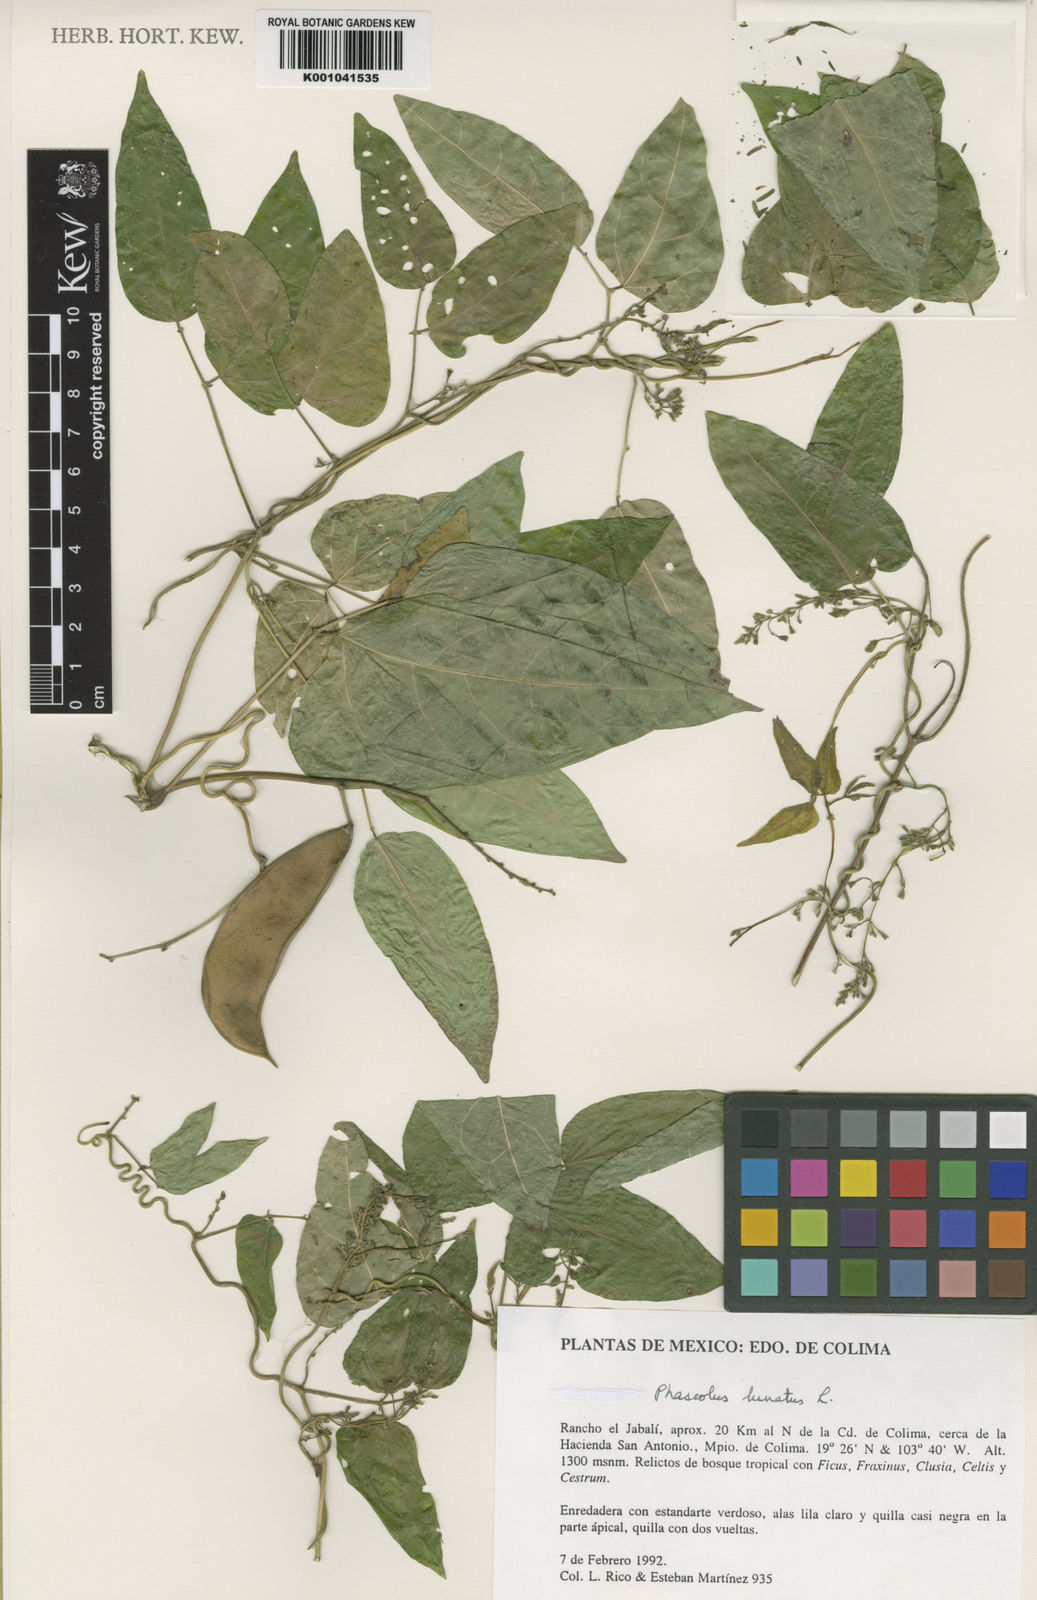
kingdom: Plantae
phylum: Tracheophyta
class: Magnoliopsida
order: Fabales
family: Fabaceae
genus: Phaseolus
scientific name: Phaseolus lunatus
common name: Sieva bean
